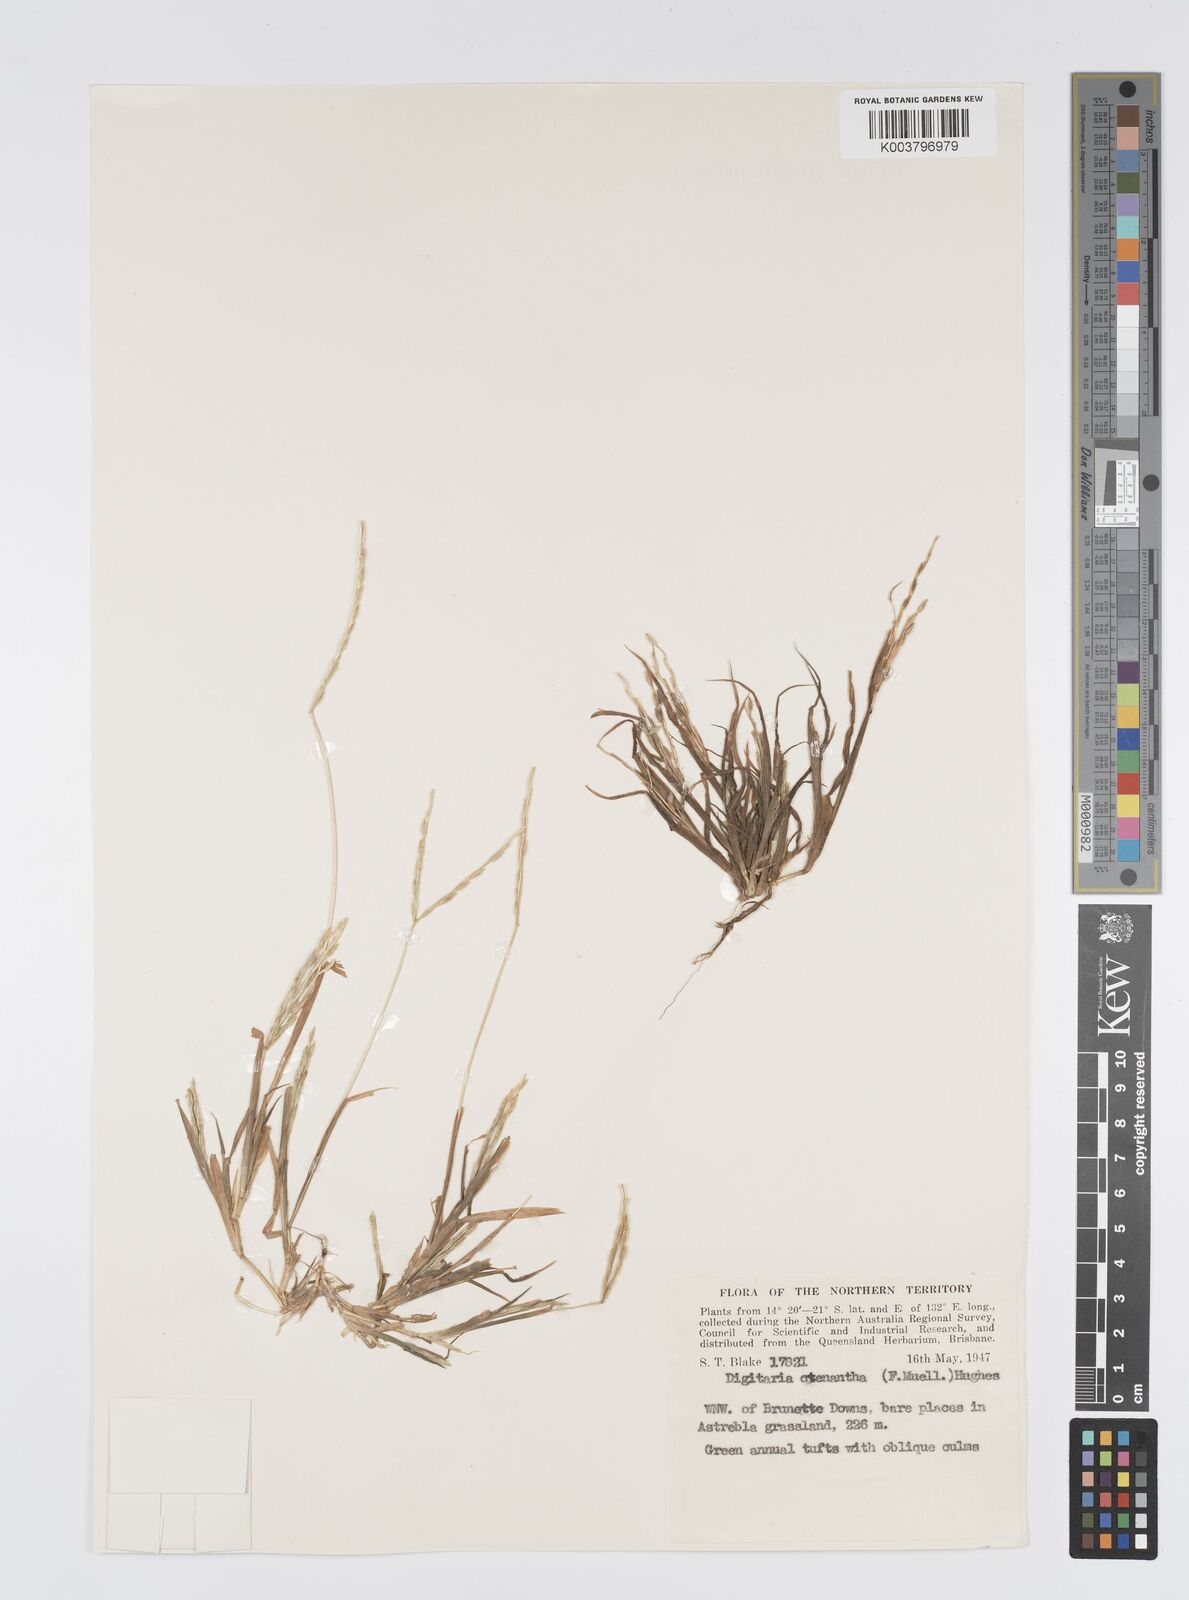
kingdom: Plantae
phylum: Tracheophyta
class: Liliopsida
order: Poales
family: Poaceae
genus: Digitaria
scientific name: Digitaria ctenantha
